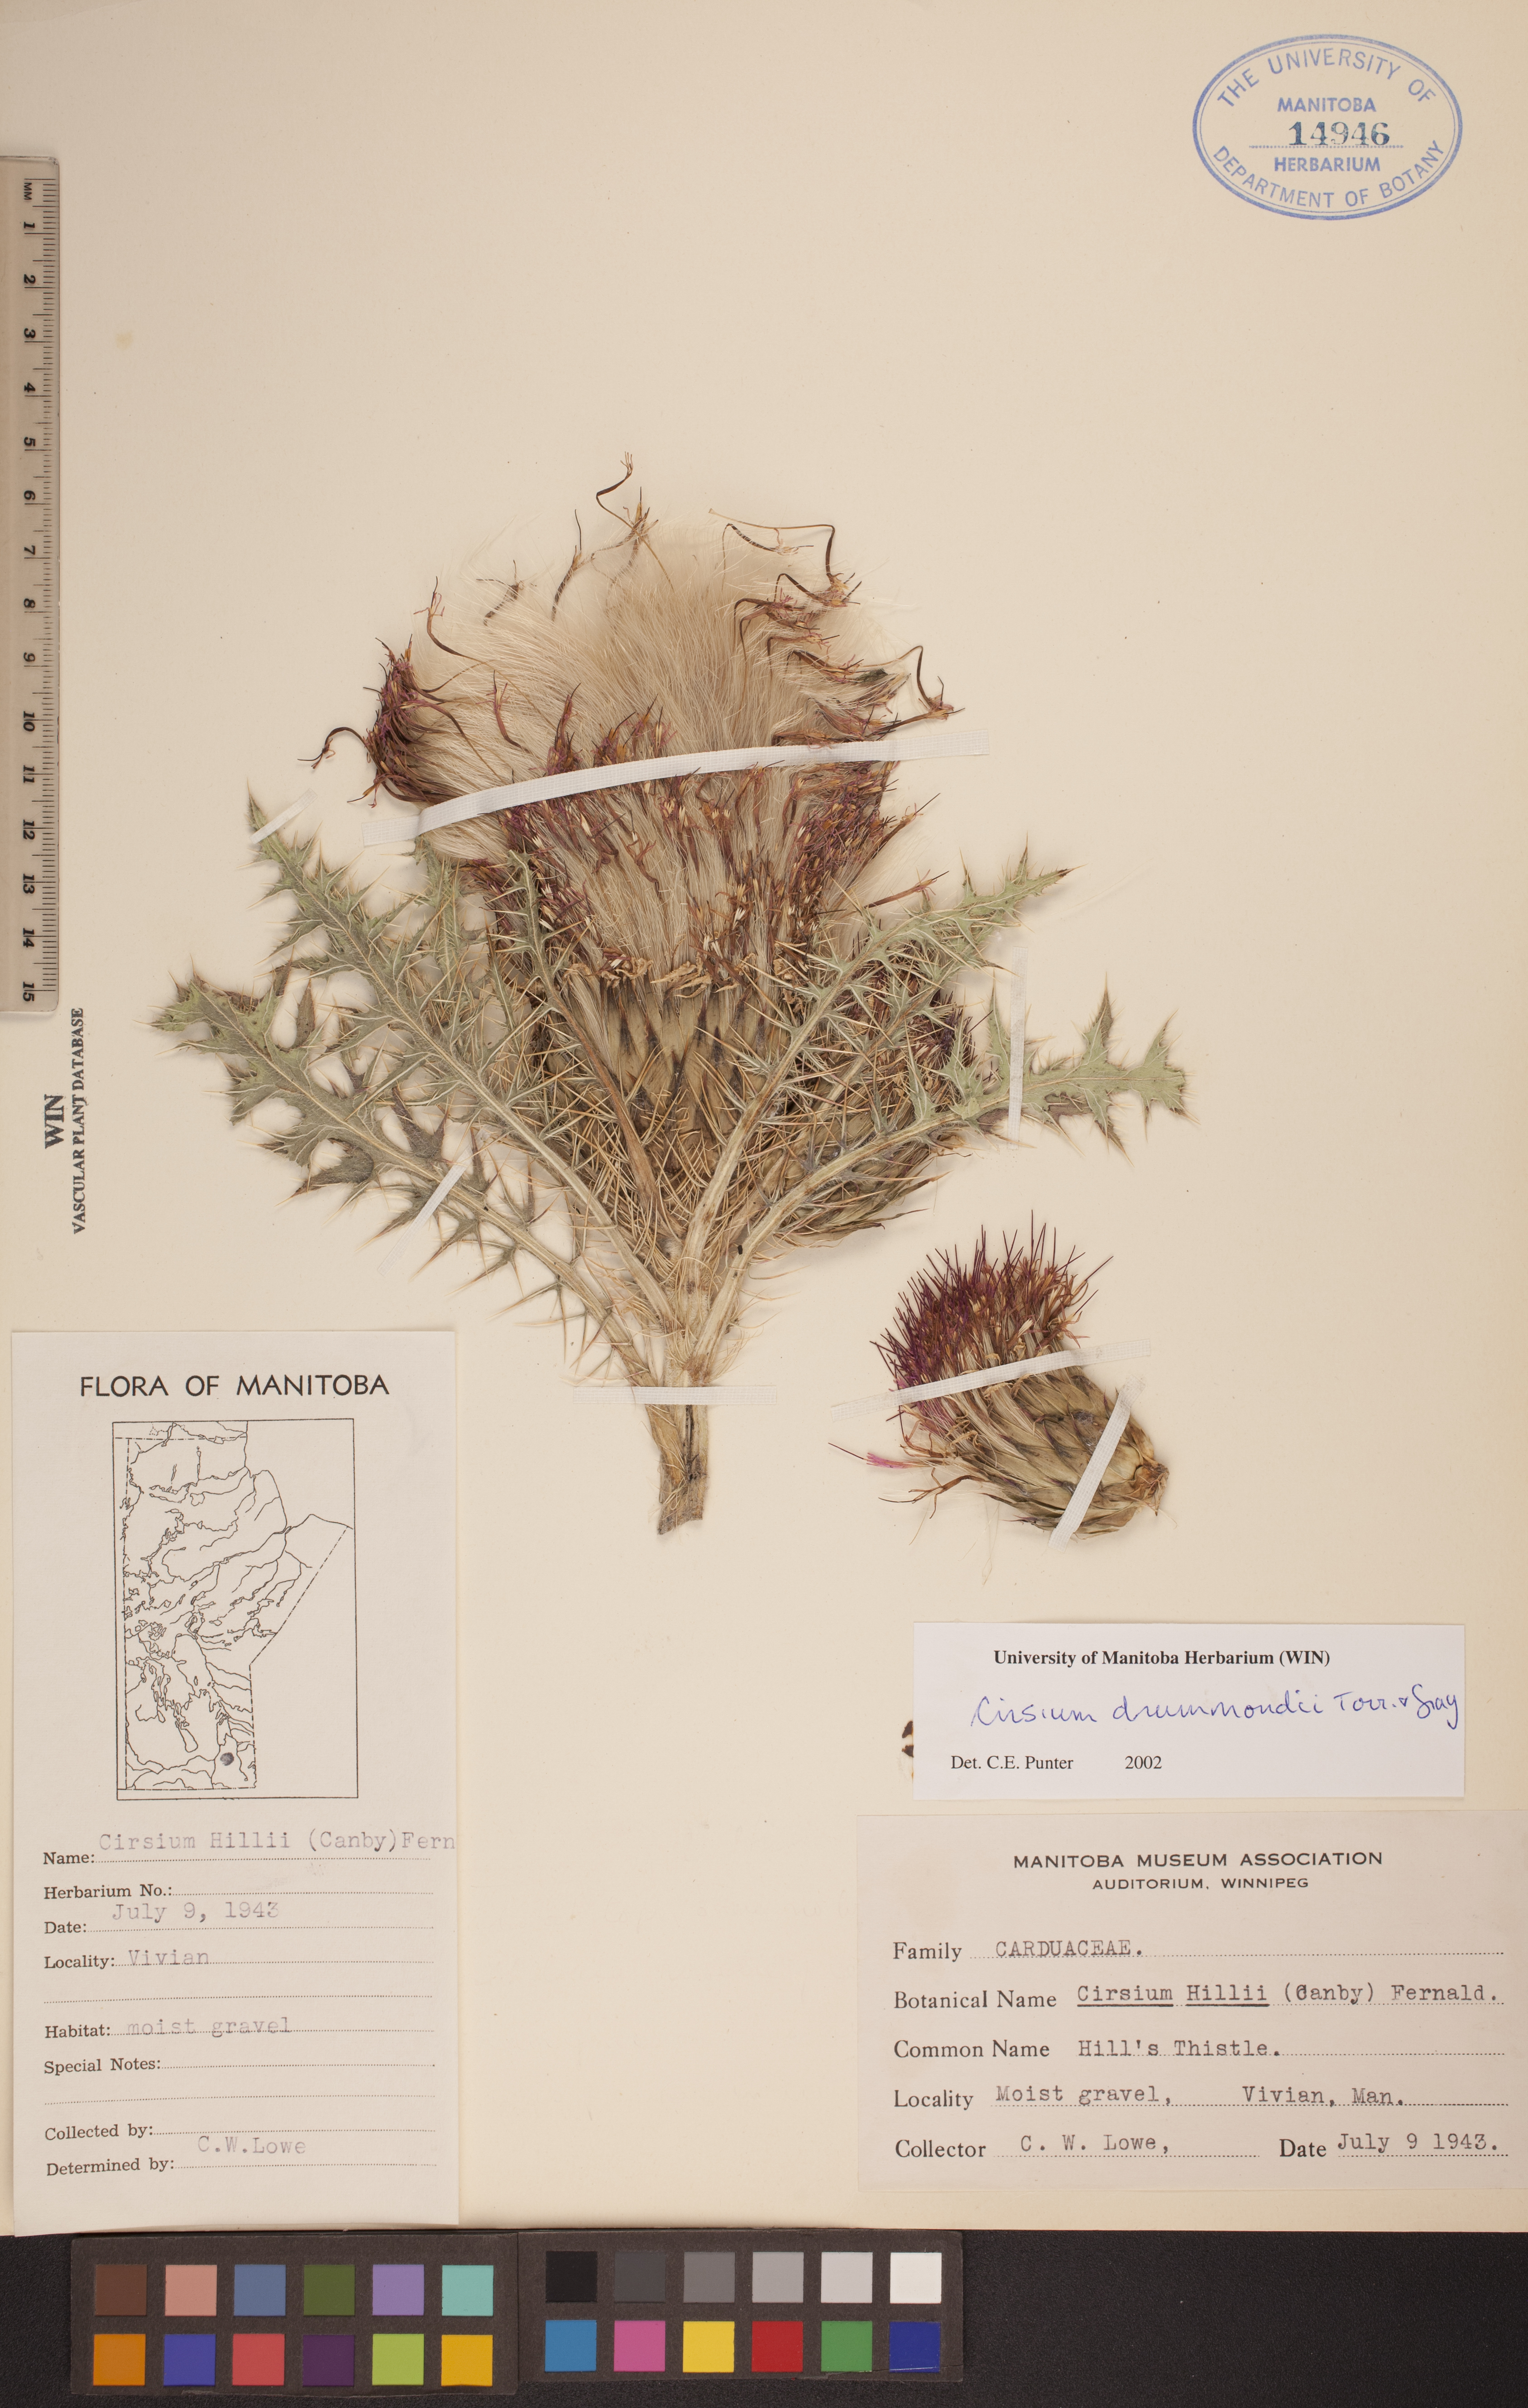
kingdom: Plantae
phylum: Tracheophyta
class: Magnoliopsida
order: Asterales
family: Asteraceae
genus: Cirsium
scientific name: Cirsium drummondii
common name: Drummond's thistle
